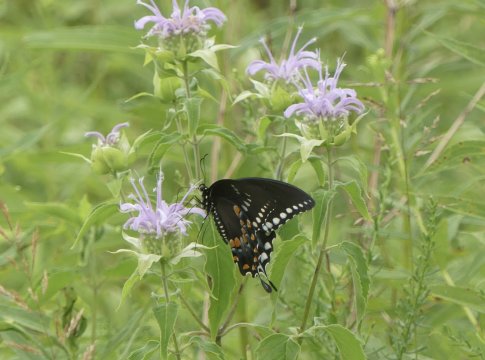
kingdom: Animalia
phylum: Arthropoda
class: Insecta
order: Lepidoptera
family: Papilionidae
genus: Pterourus
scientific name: Pterourus troilus
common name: Spicebush Swallowtail
